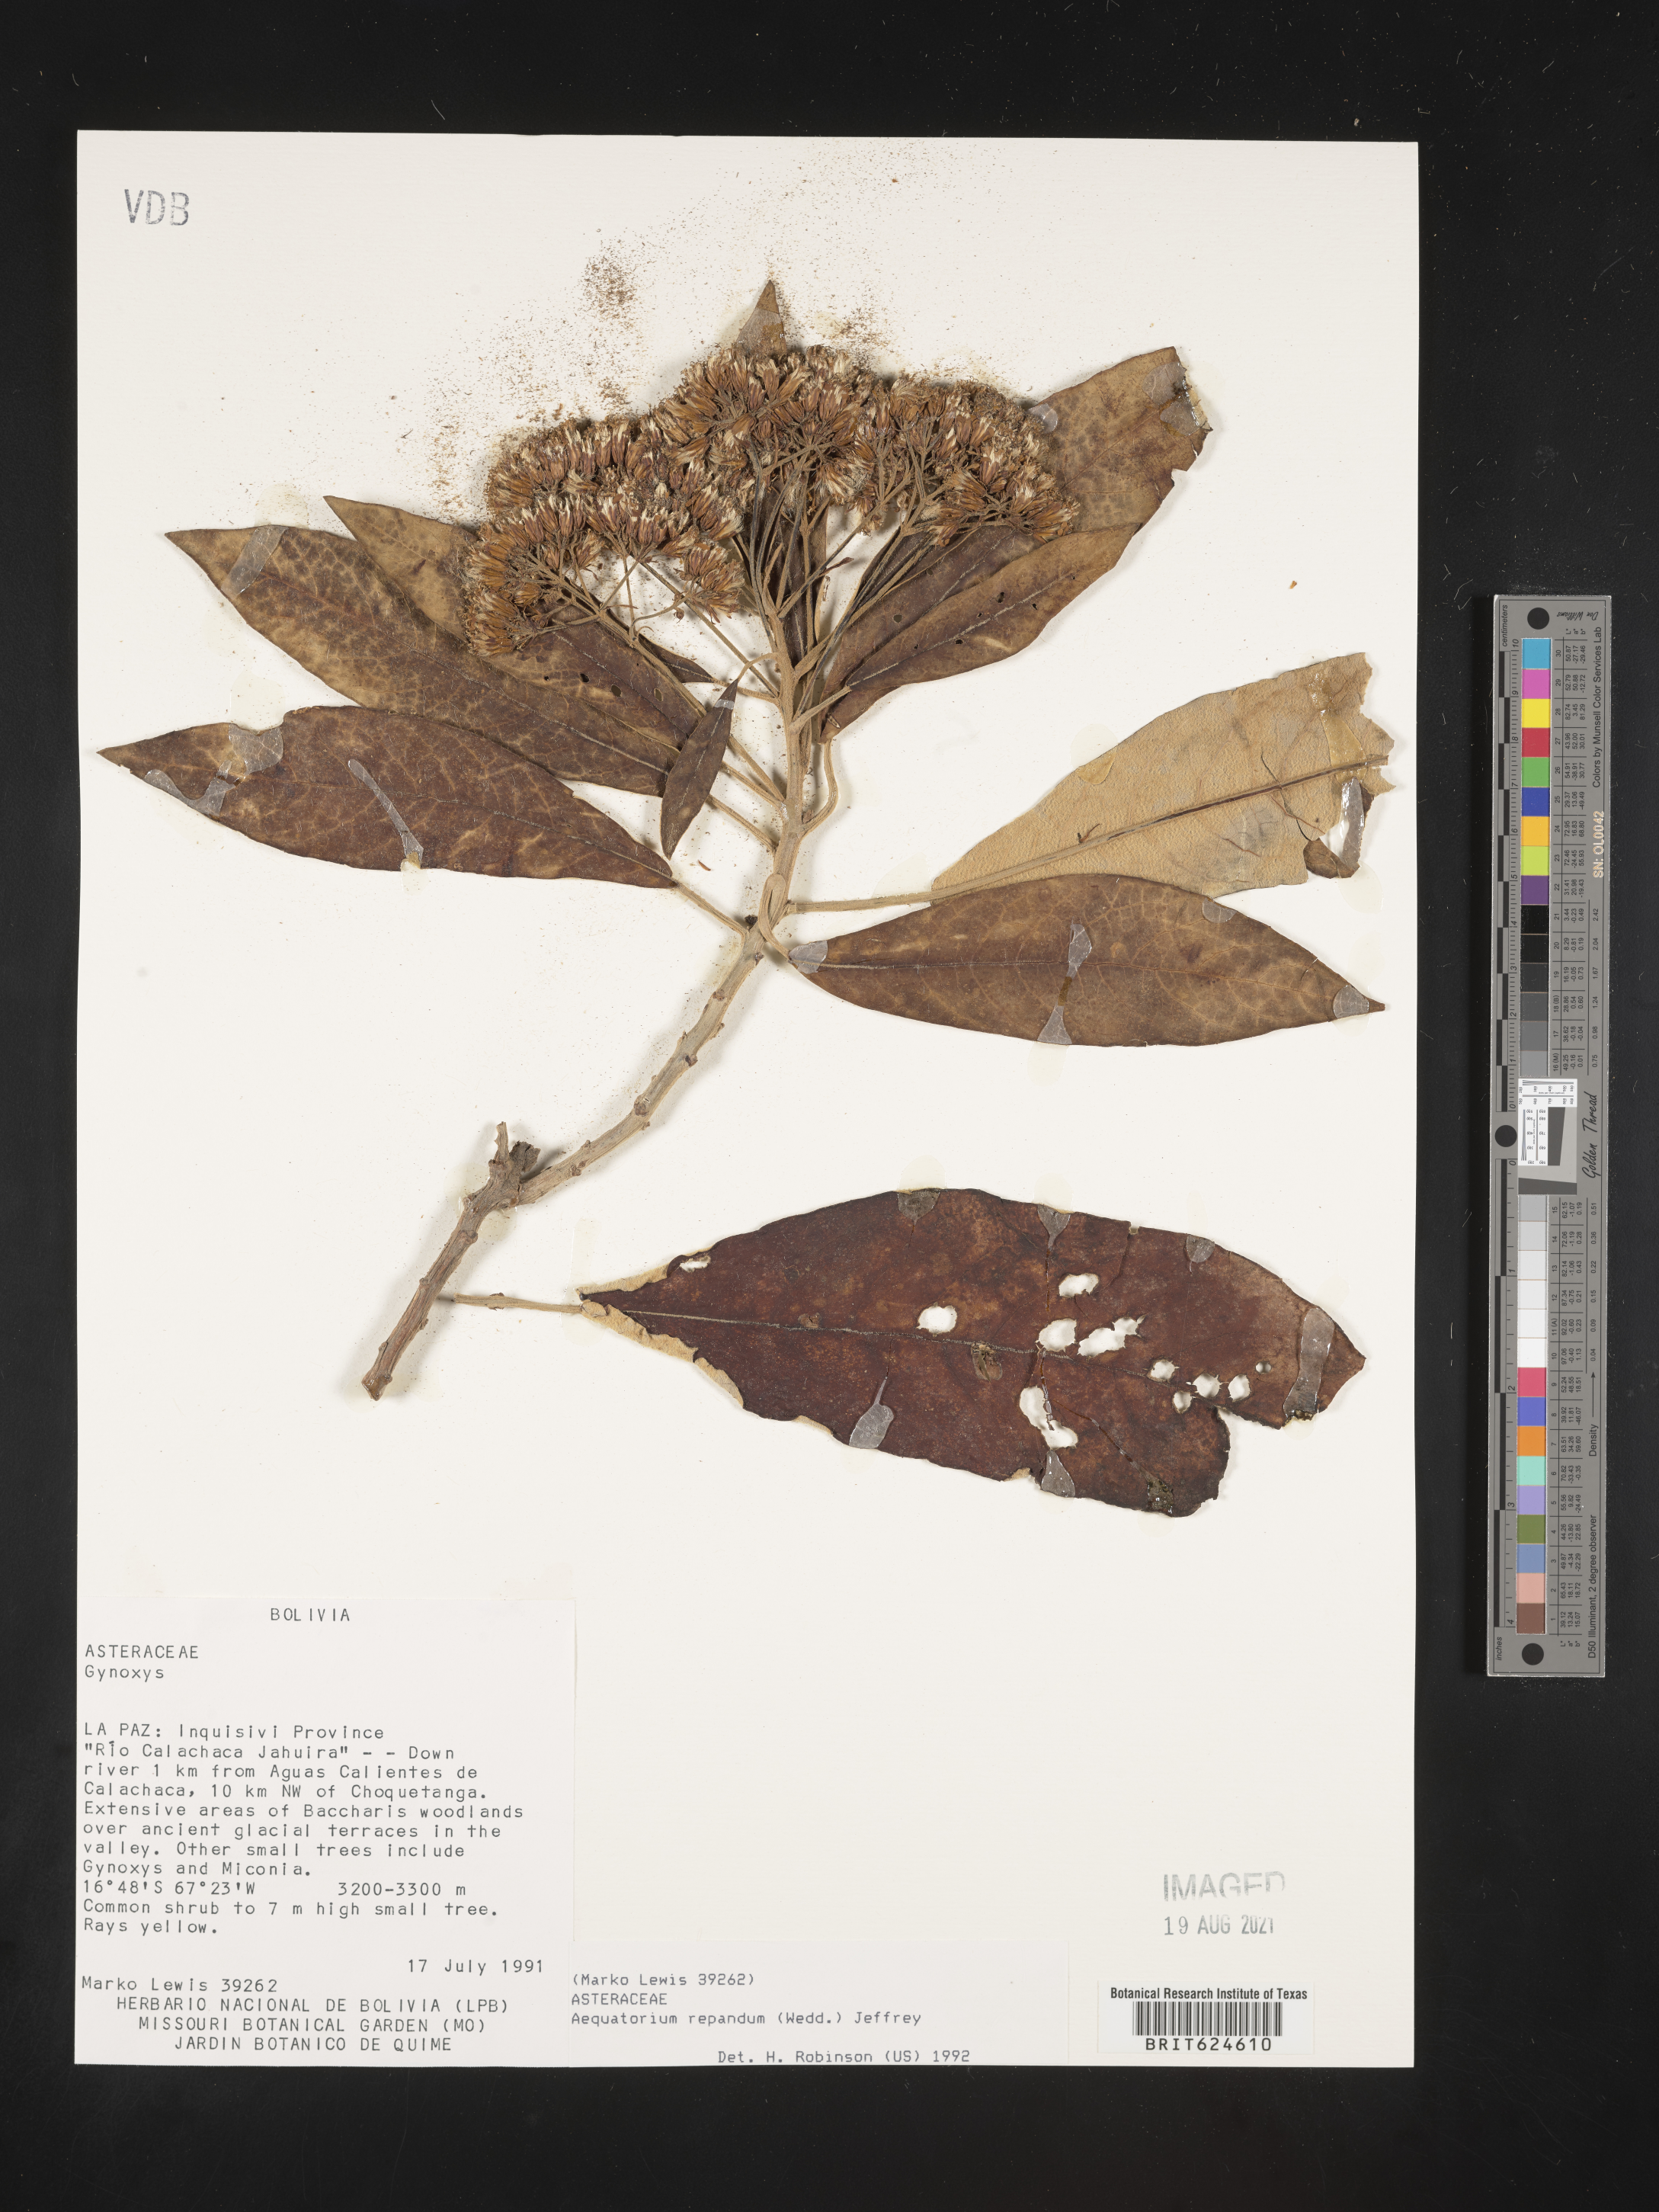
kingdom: Plantae
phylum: Tracheophyta
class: Magnoliopsida
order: Asterales
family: Asteraceae
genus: Nordenstamia
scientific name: Nordenstamia repanda
